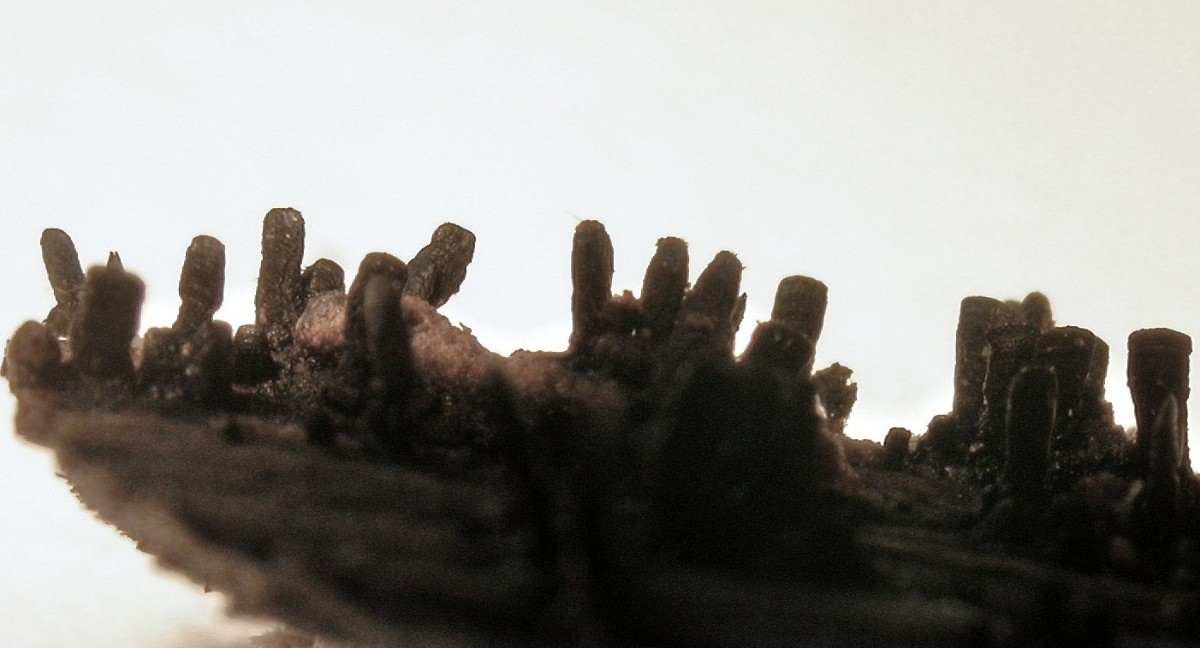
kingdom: Fungi
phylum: Ascomycota
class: Eurotiomycetes
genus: Glyphium
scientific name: Glyphium elatum
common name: kuløkse
